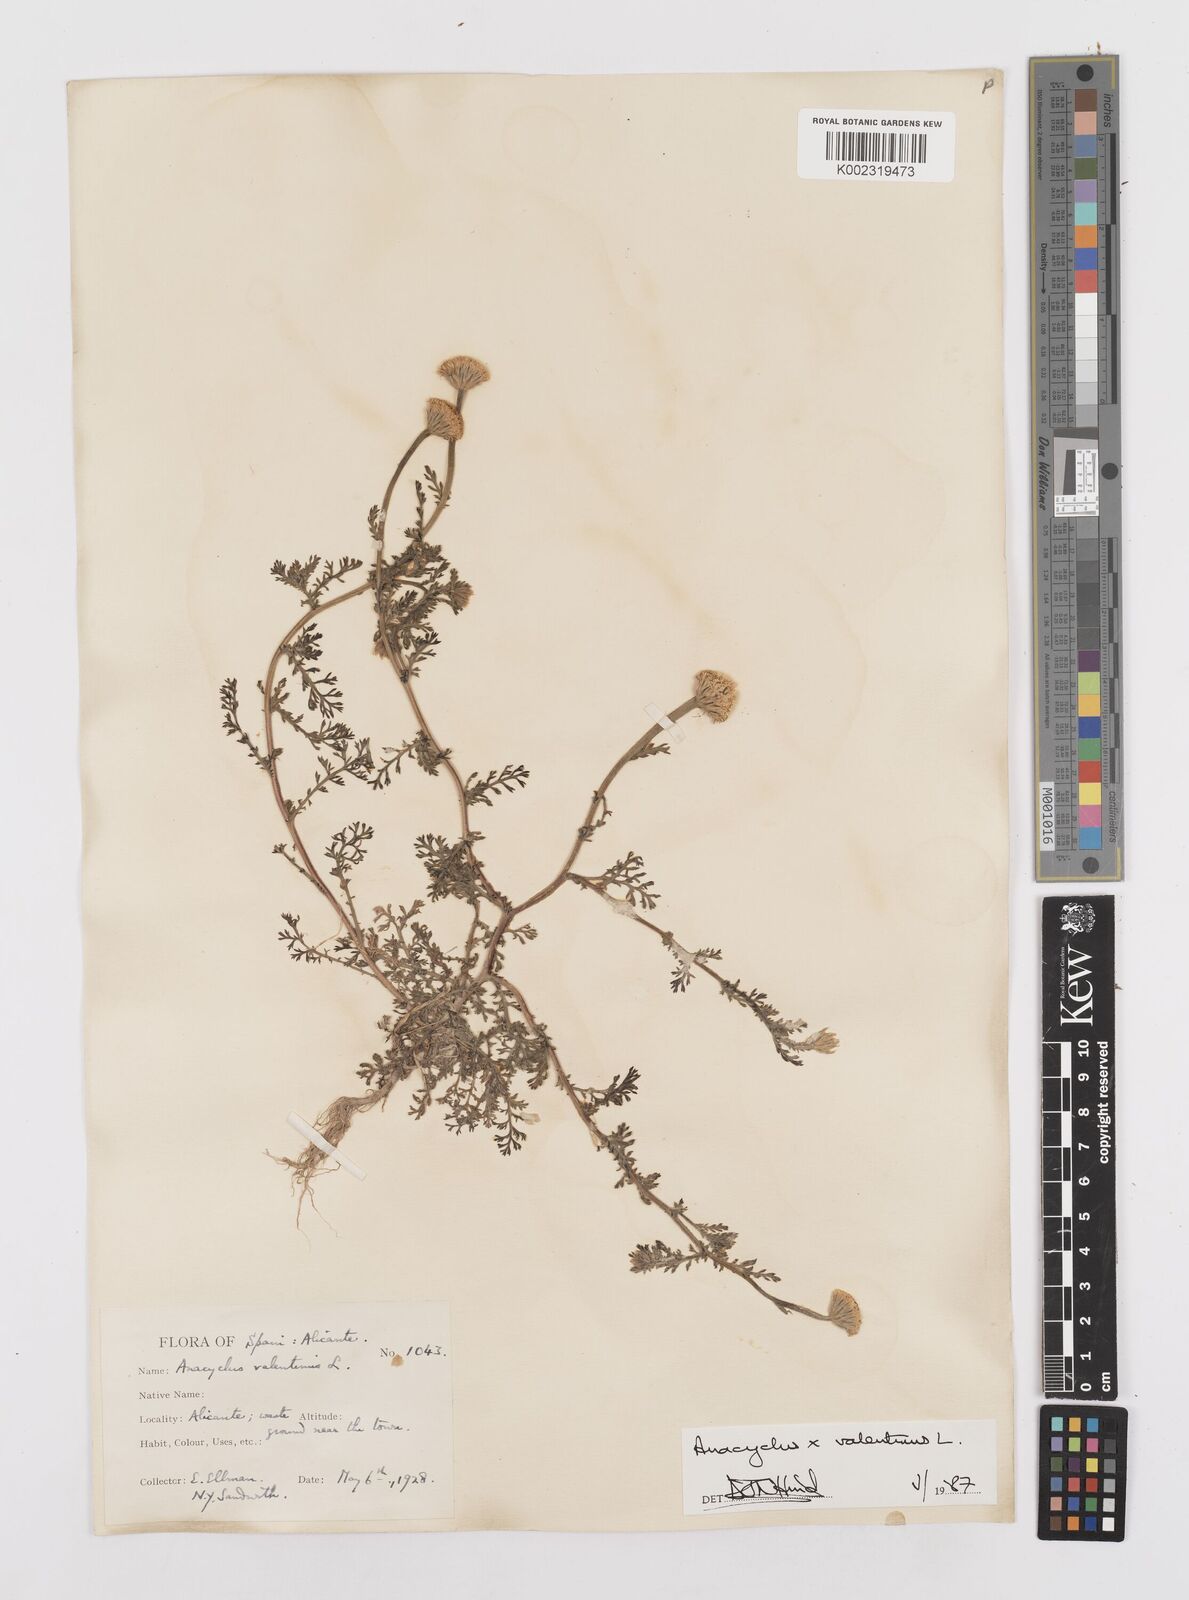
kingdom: Plantae
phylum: Tracheophyta
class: Magnoliopsida
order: Asterales
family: Asteraceae
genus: Anacyclus
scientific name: Anacyclus valentinus
